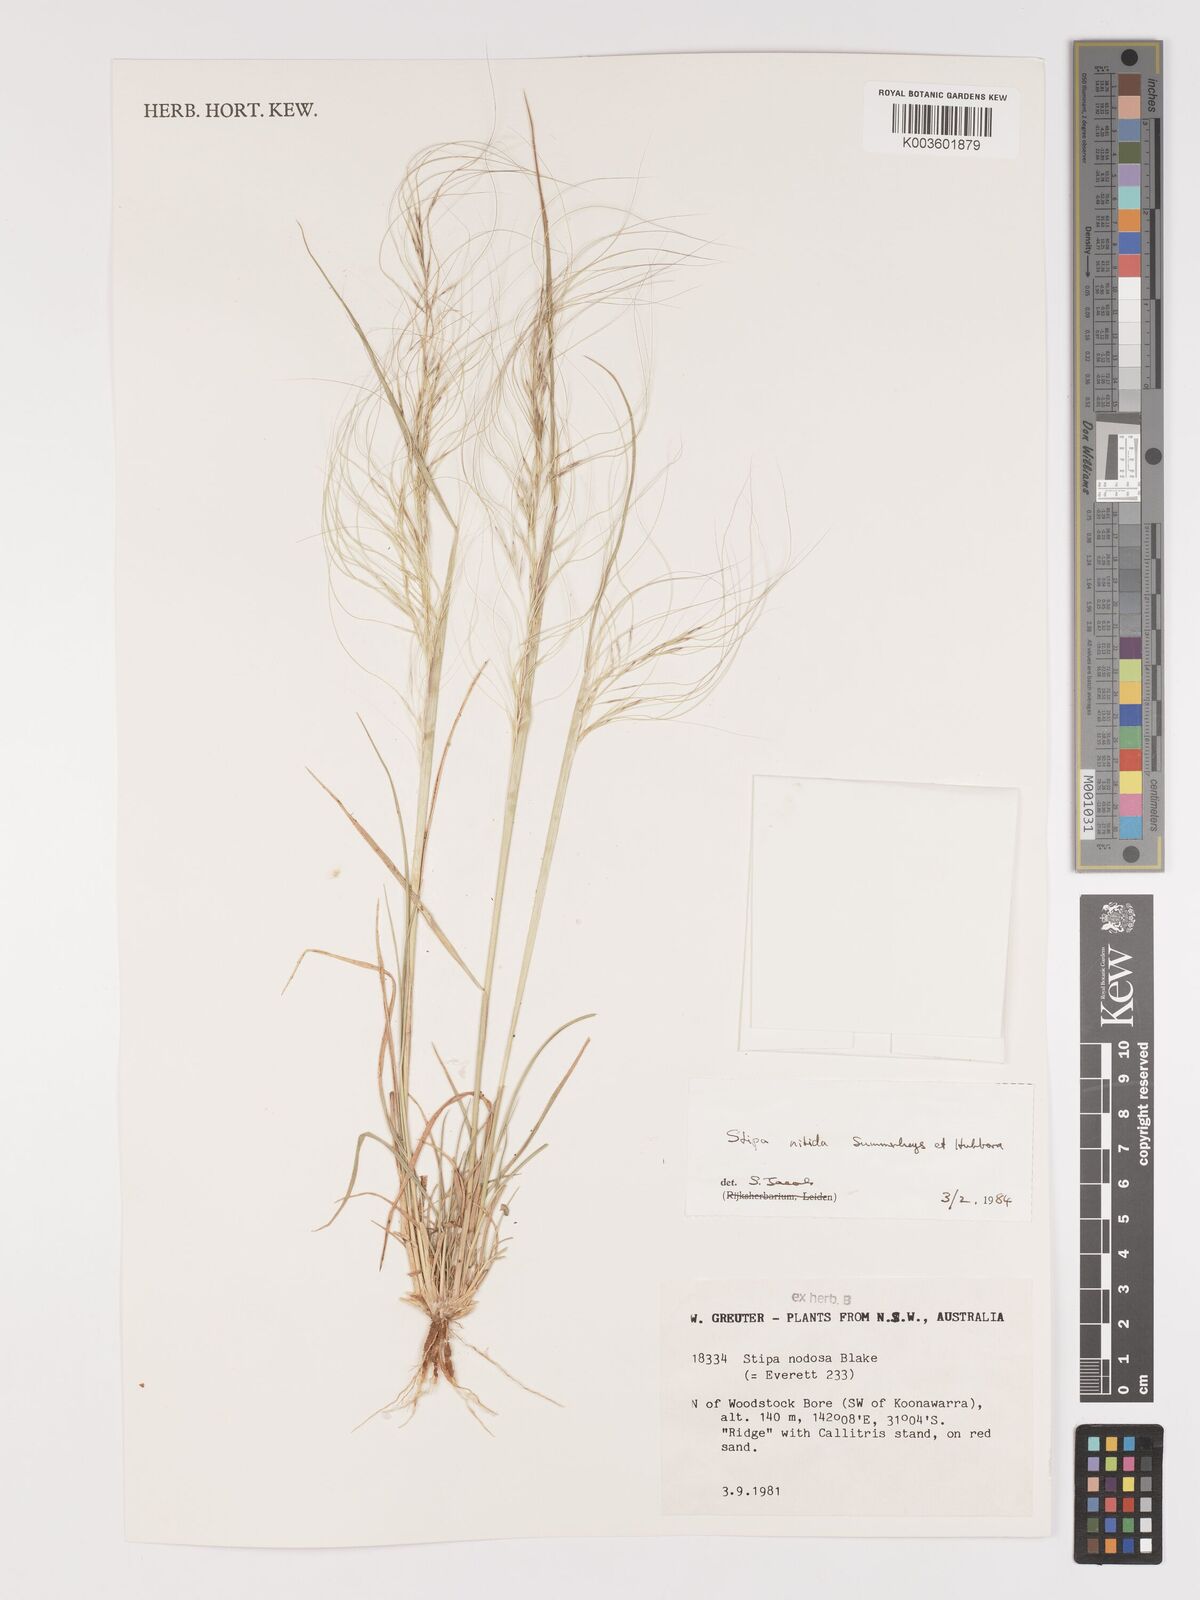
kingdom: Plantae
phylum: Tracheophyta
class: Liliopsida
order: Poales
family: Poaceae
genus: Austrostipa
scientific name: Austrostipa nitida
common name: Balcarra grass
